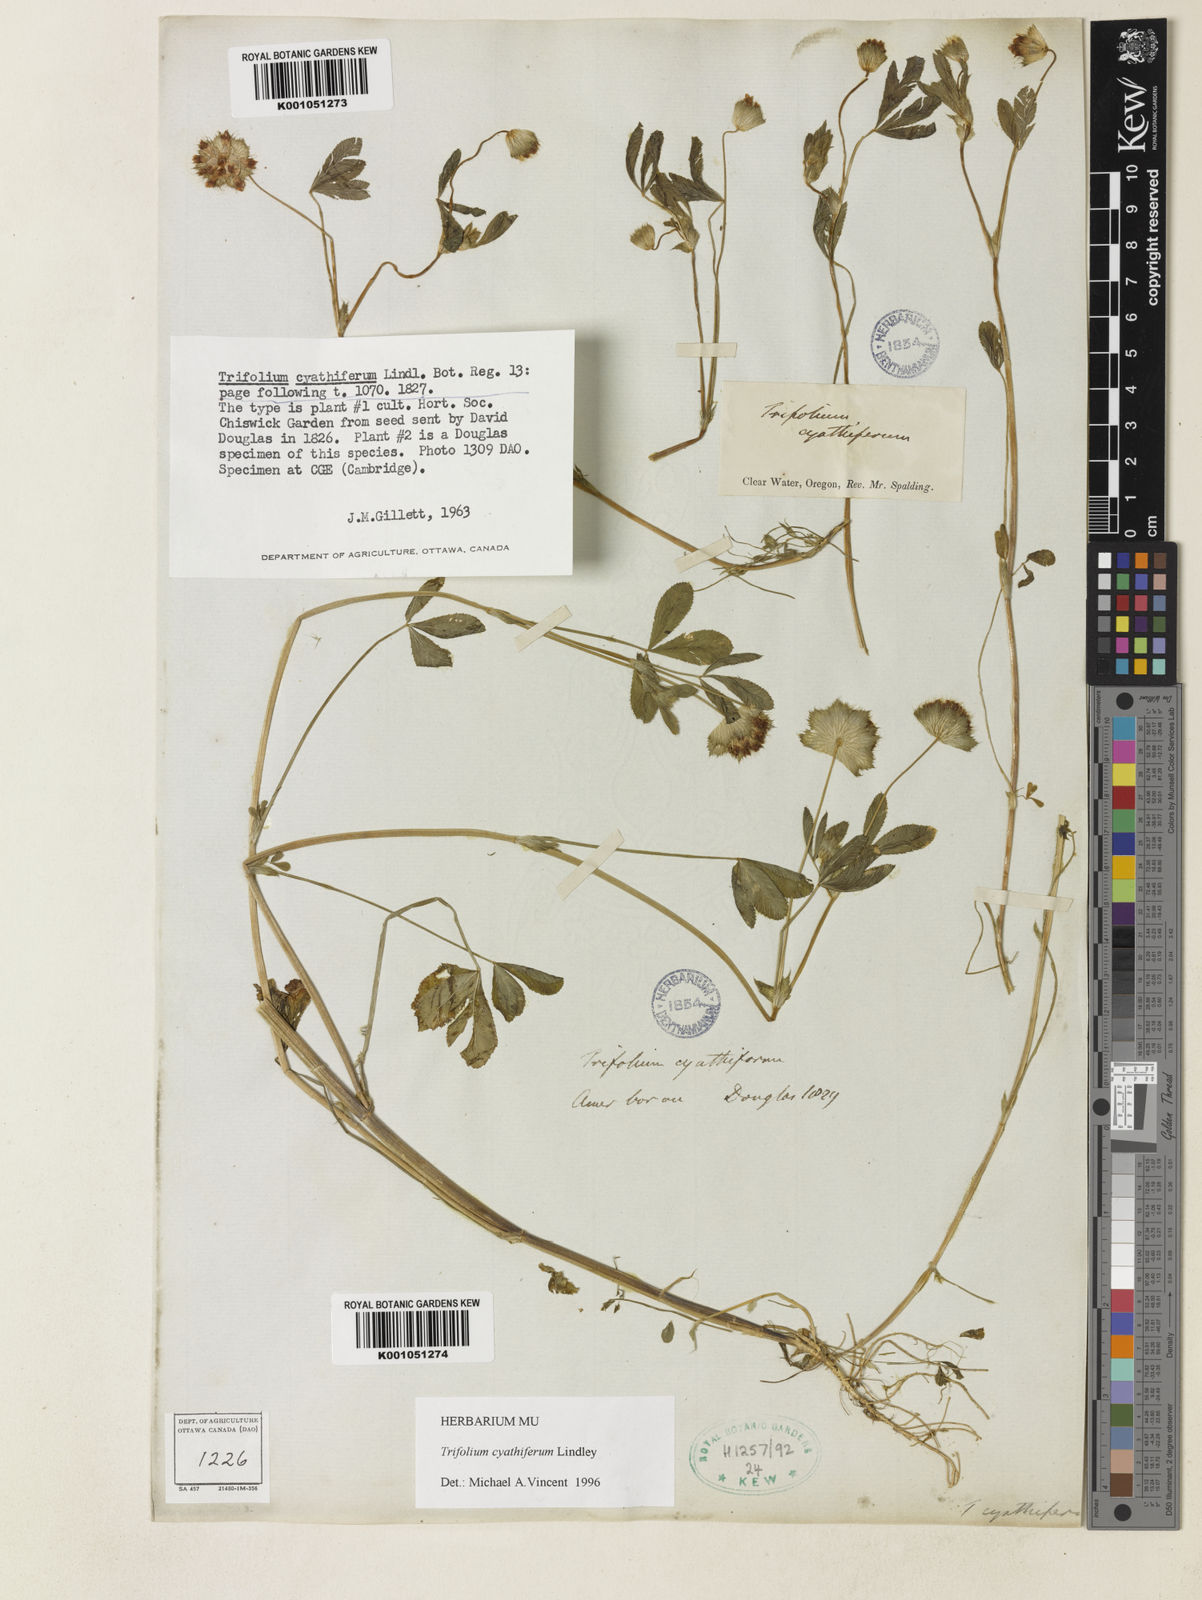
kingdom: Plantae
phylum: Tracheophyta
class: Magnoliopsida
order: Fabales
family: Fabaceae
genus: Trifolium
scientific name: Trifolium cyathiferum
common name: Bowl clover
